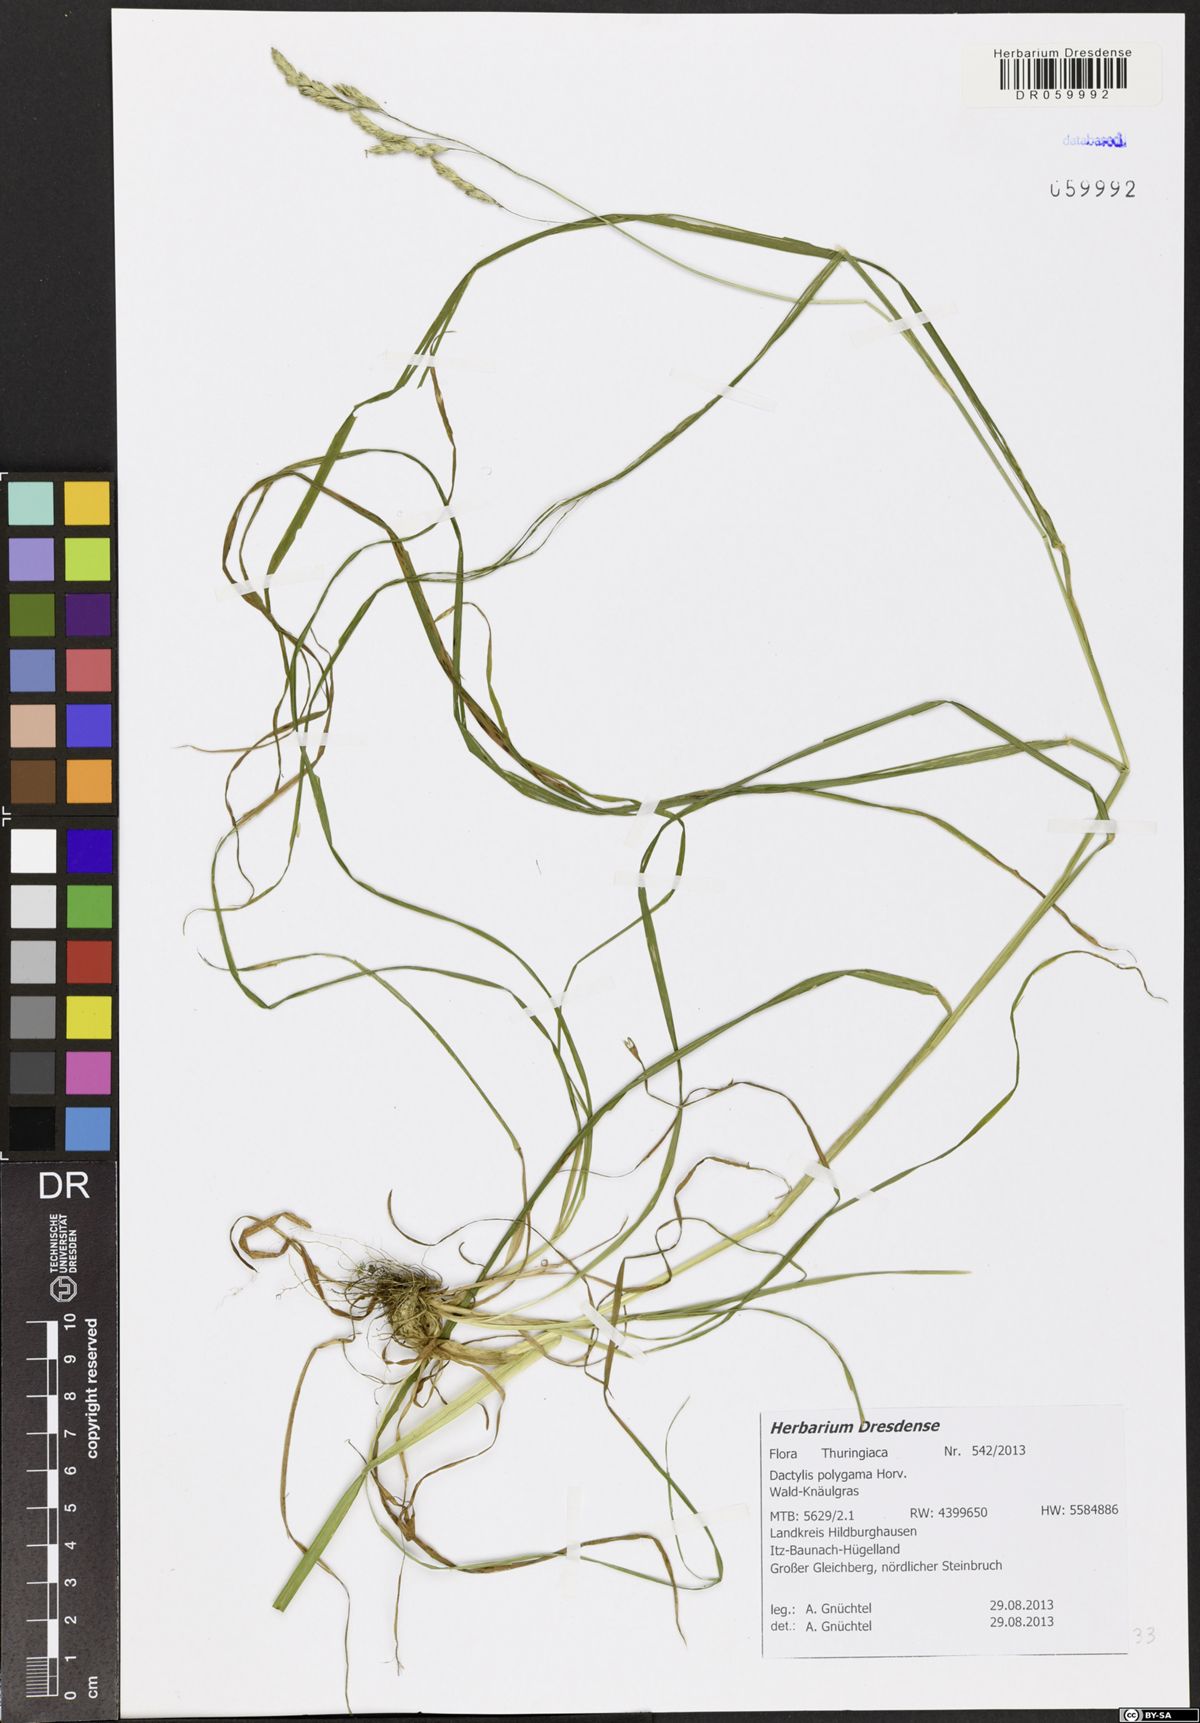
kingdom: Plantae
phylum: Tracheophyta
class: Liliopsida
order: Poales
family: Poaceae
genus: Dactylis
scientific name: Dactylis glomerata
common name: Orchardgrass
